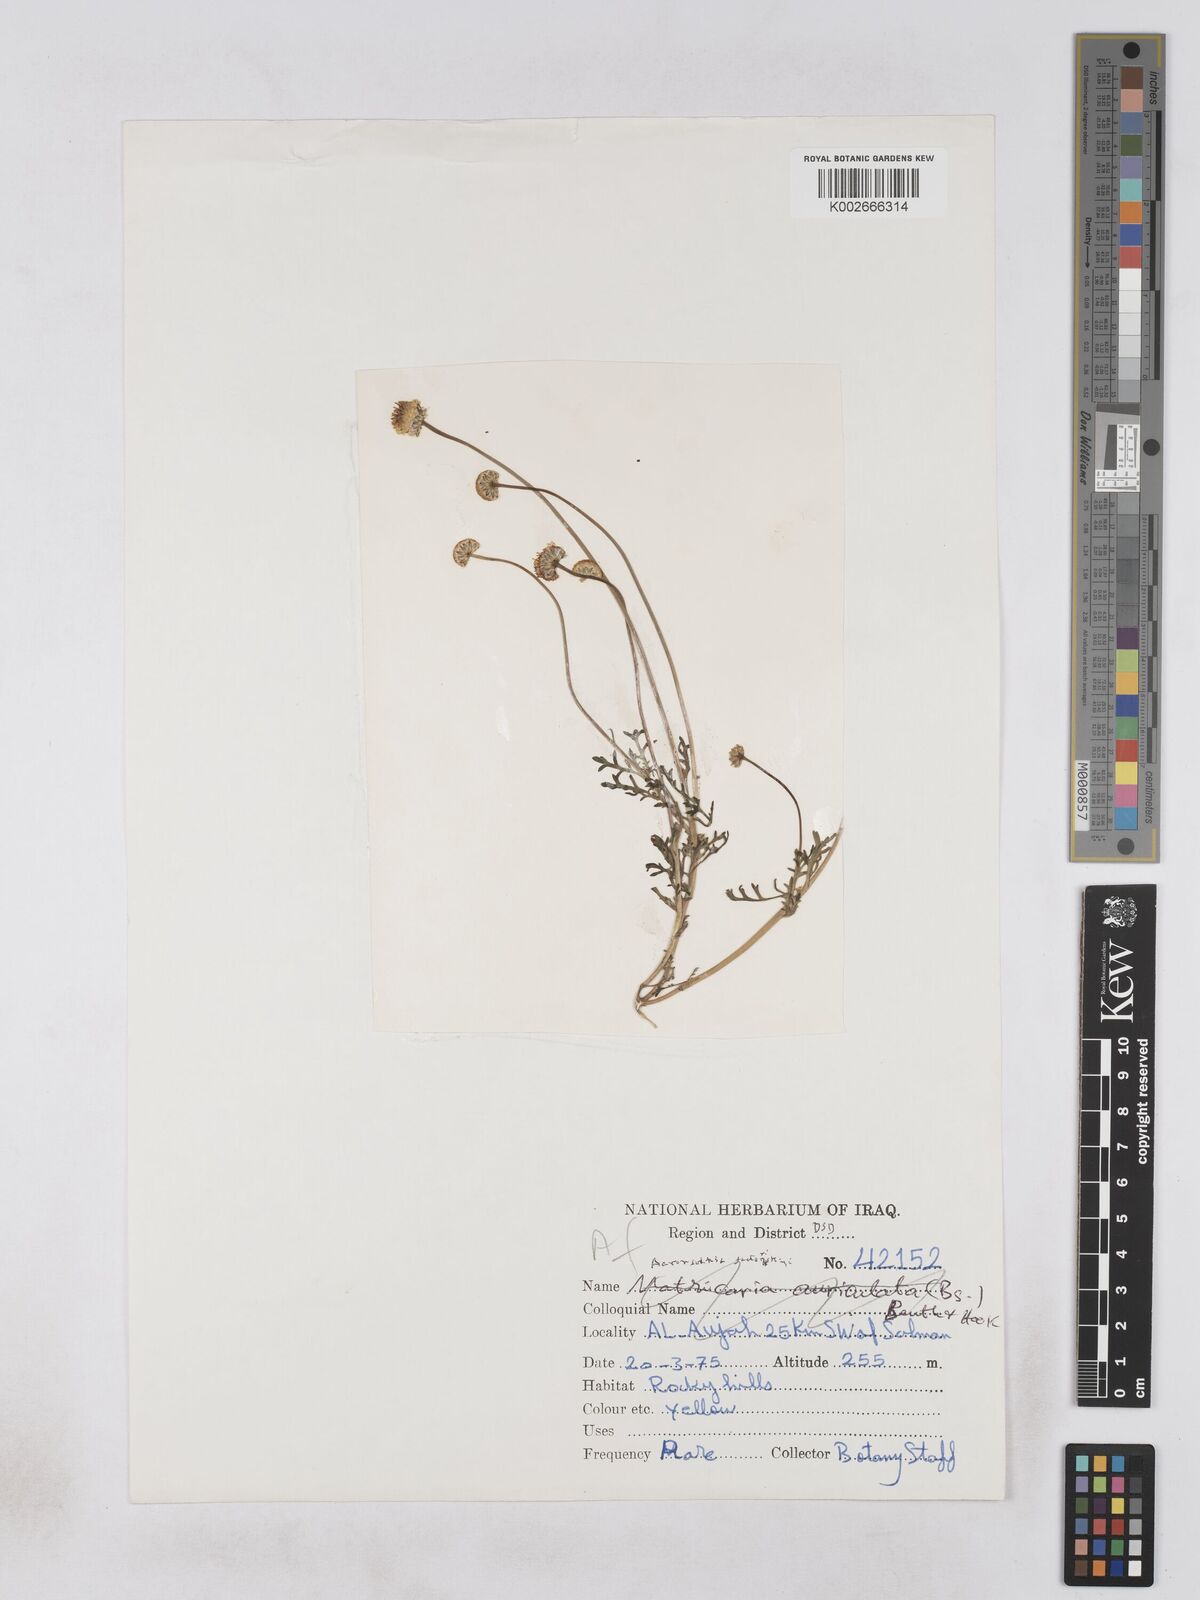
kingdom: Plantae
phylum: Tracheophyta
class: Magnoliopsida
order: Asterales
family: Asteraceae
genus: Otoglyphis
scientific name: Otoglyphis factorovskyi
